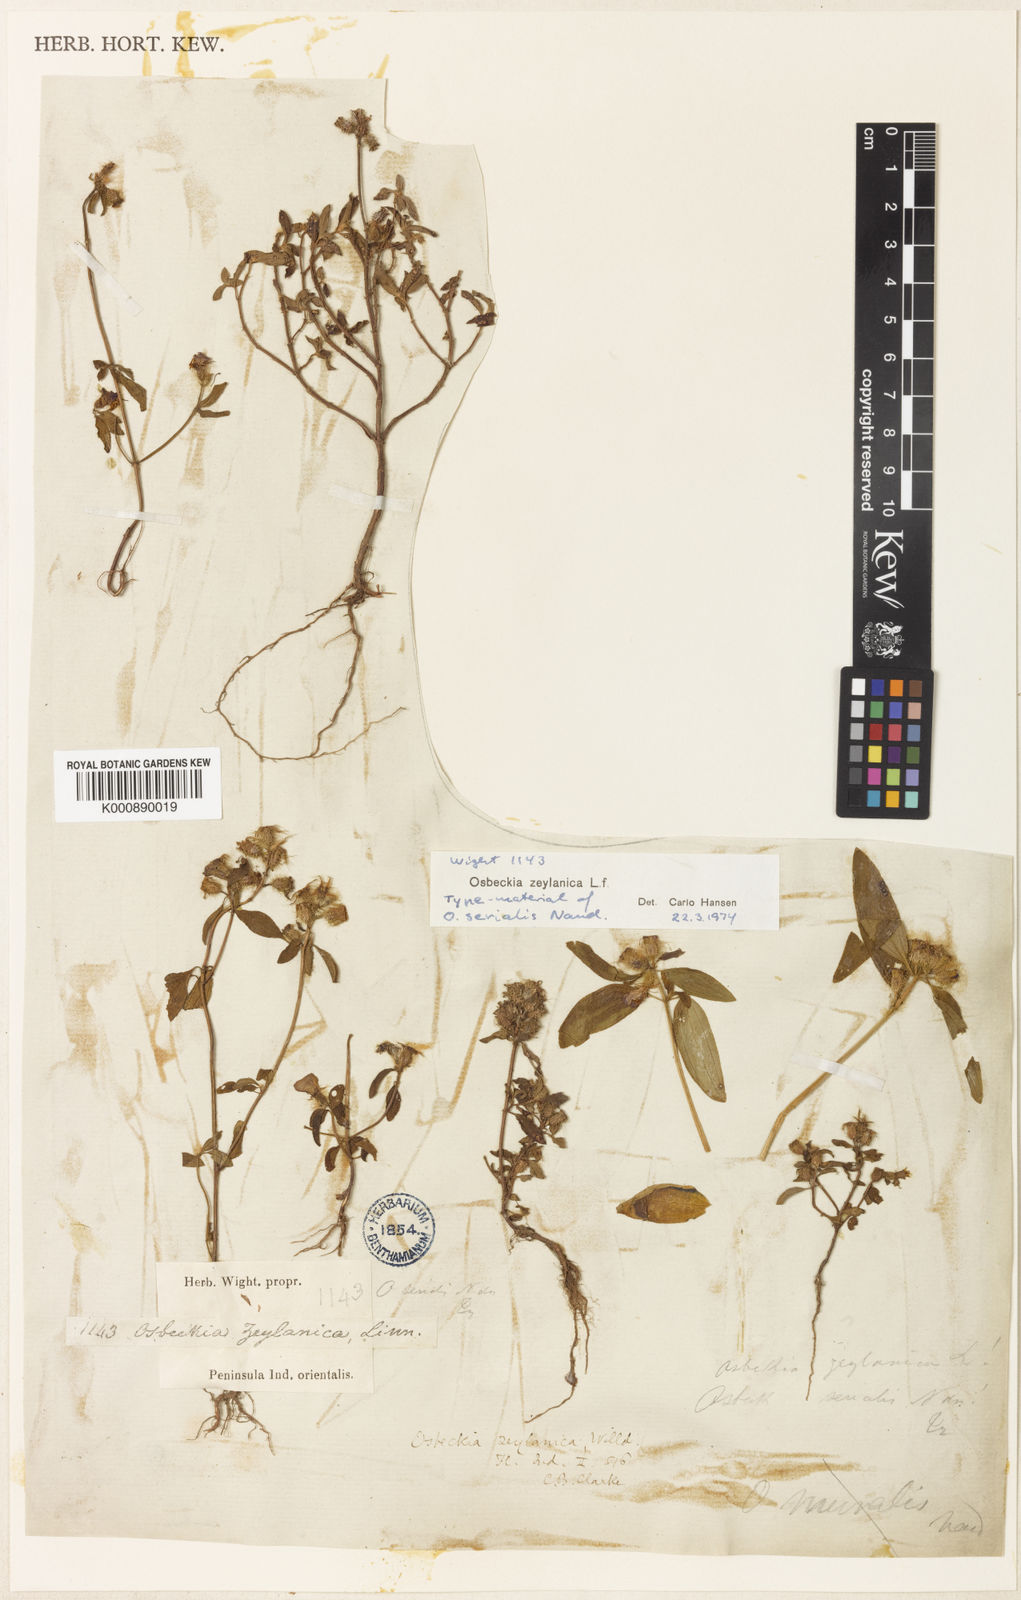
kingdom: Plantae
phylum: Tracheophyta
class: Magnoliopsida
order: Myrtales
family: Melastomataceae
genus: Osbeckia
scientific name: Osbeckia zeylanica
